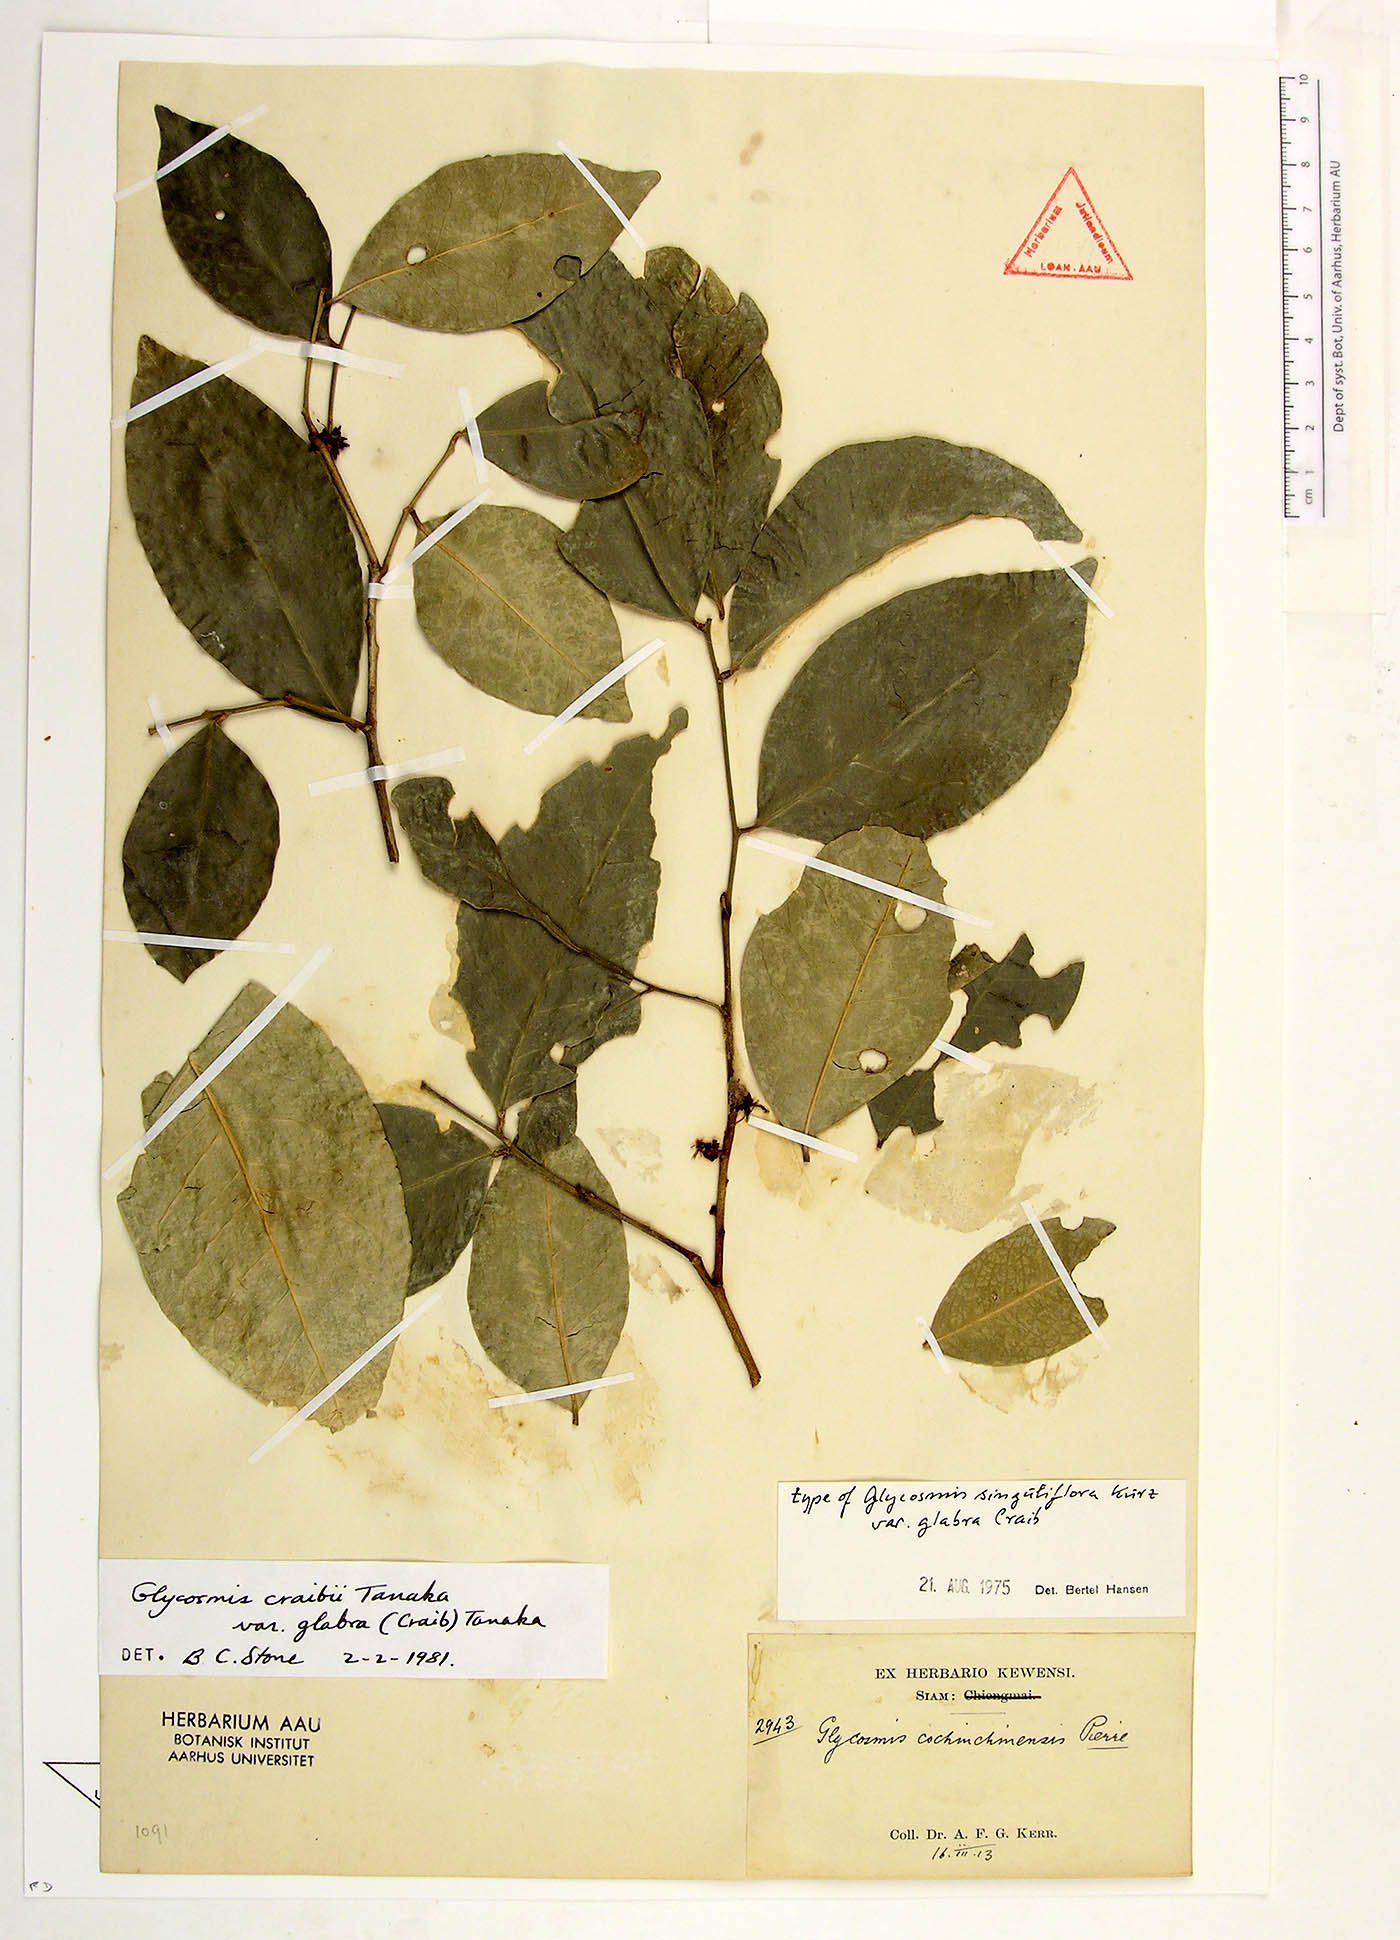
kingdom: Plantae
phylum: Tracheophyta
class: Magnoliopsida
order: Sapindales
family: Rutaceae
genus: Glycosmis
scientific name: Glycosmis craibii
